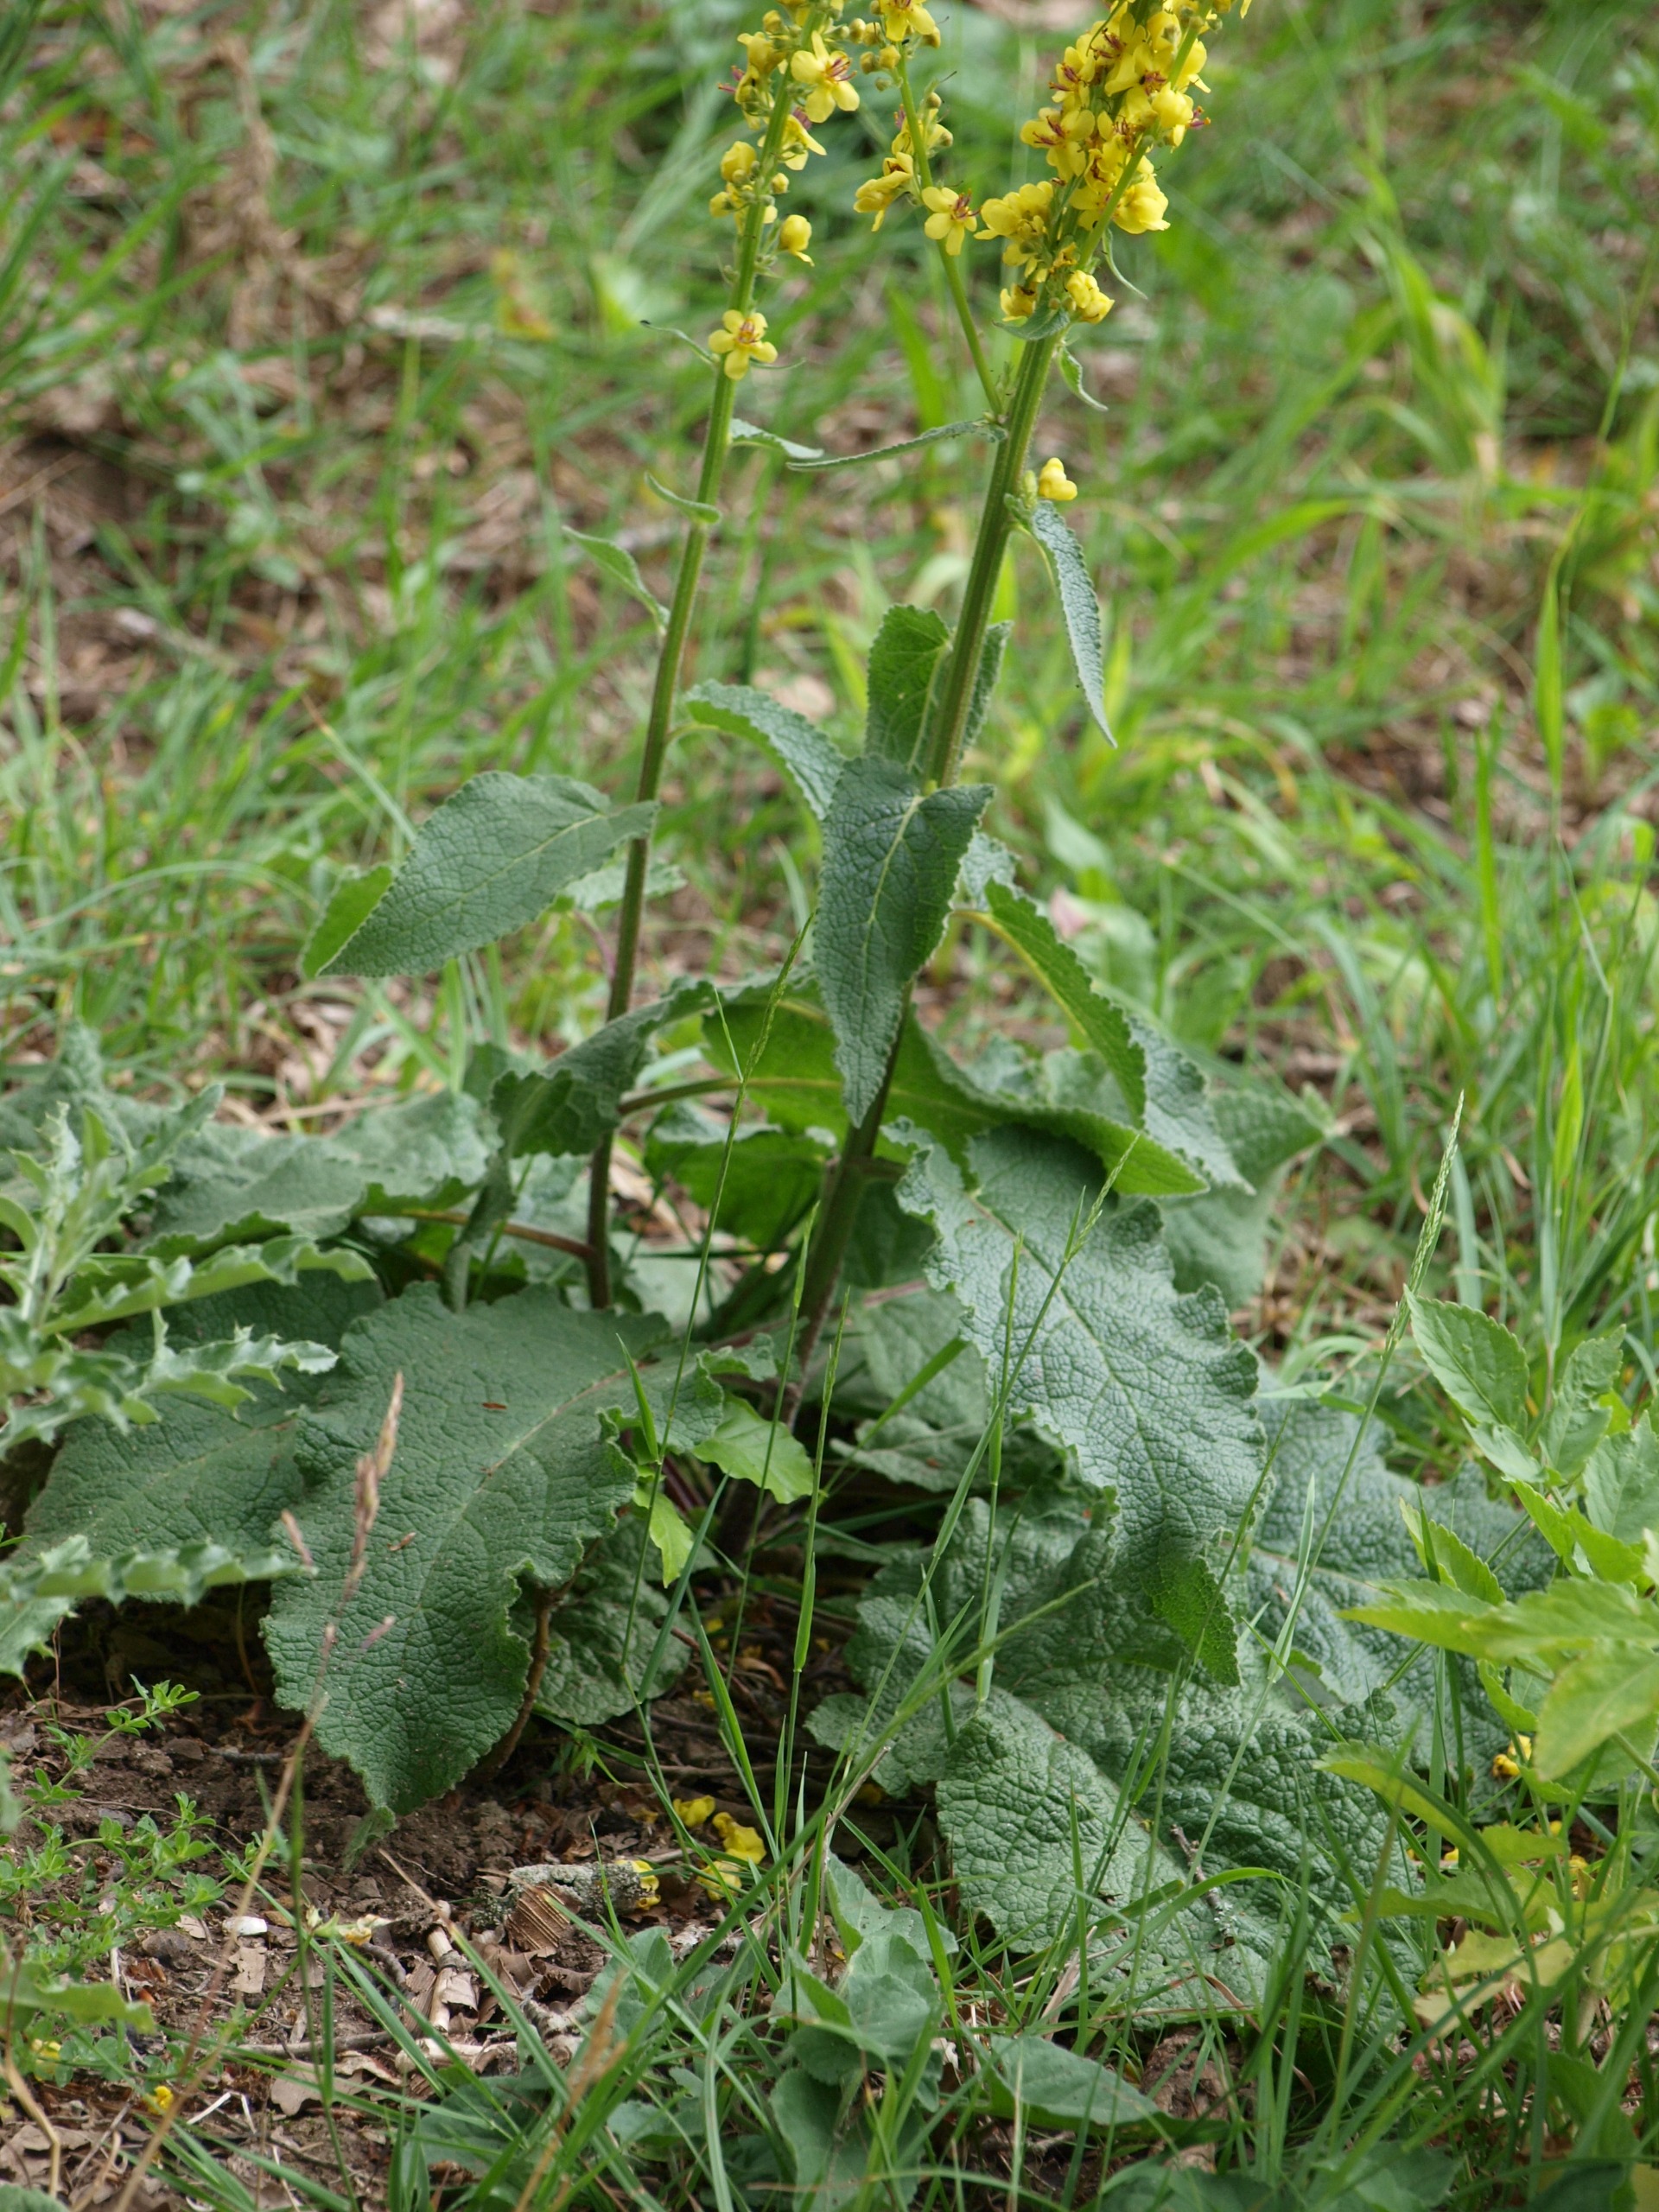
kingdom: Plantae
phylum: Tracheophyta
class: Magnoliopsida
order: Lamiales
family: Scrophulariaceae
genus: Verbascum
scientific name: Verbascum nigrum
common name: Mørk kongelys
